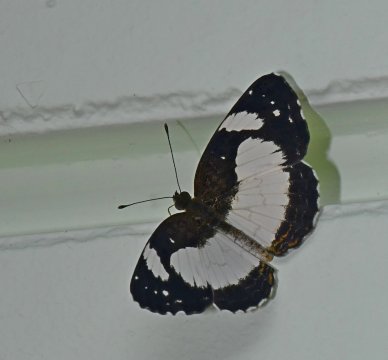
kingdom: Animalia
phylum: Arthropoda
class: Insecta
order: Lepidoptera
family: Nymphalidae
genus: Janatella
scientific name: Janatella leucodesma
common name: Whitened Crescent
